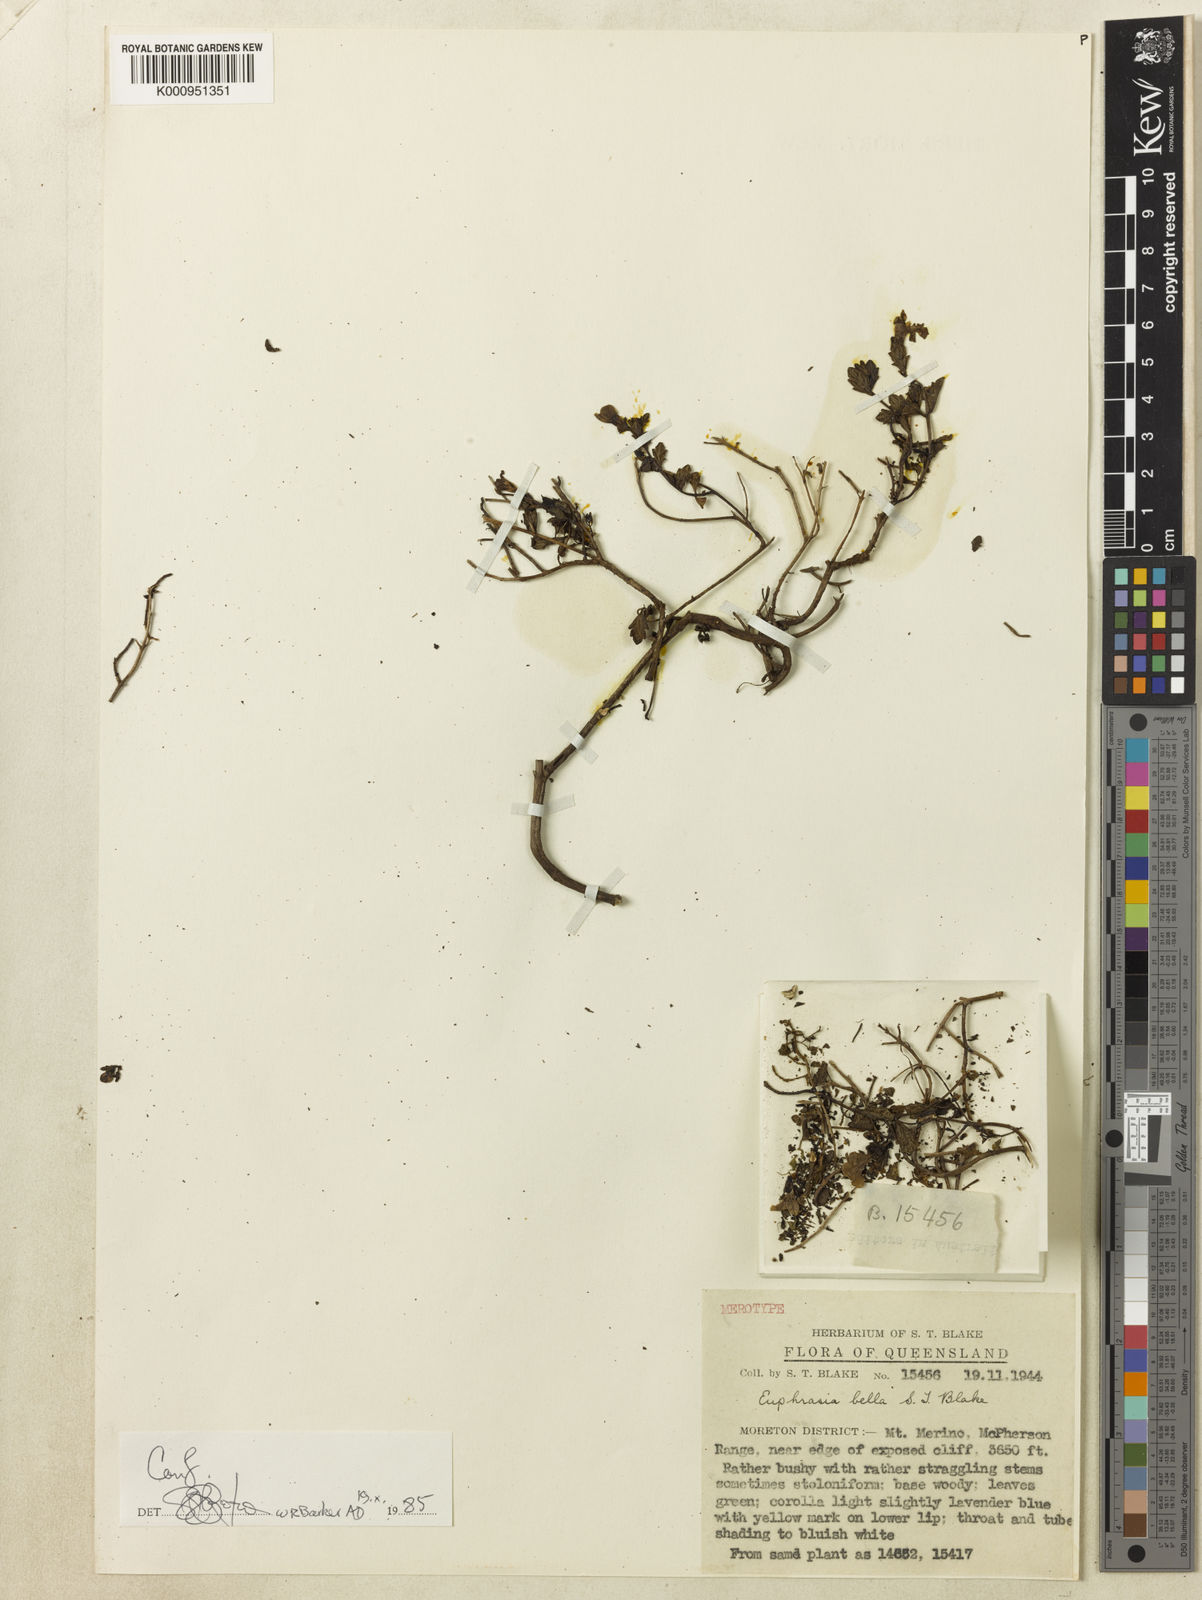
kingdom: Plantae
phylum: Tracheophyta
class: Magnoliopsida
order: Lamiales
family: Orobanchaceae
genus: Euphrasia
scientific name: Euphrasia bella
